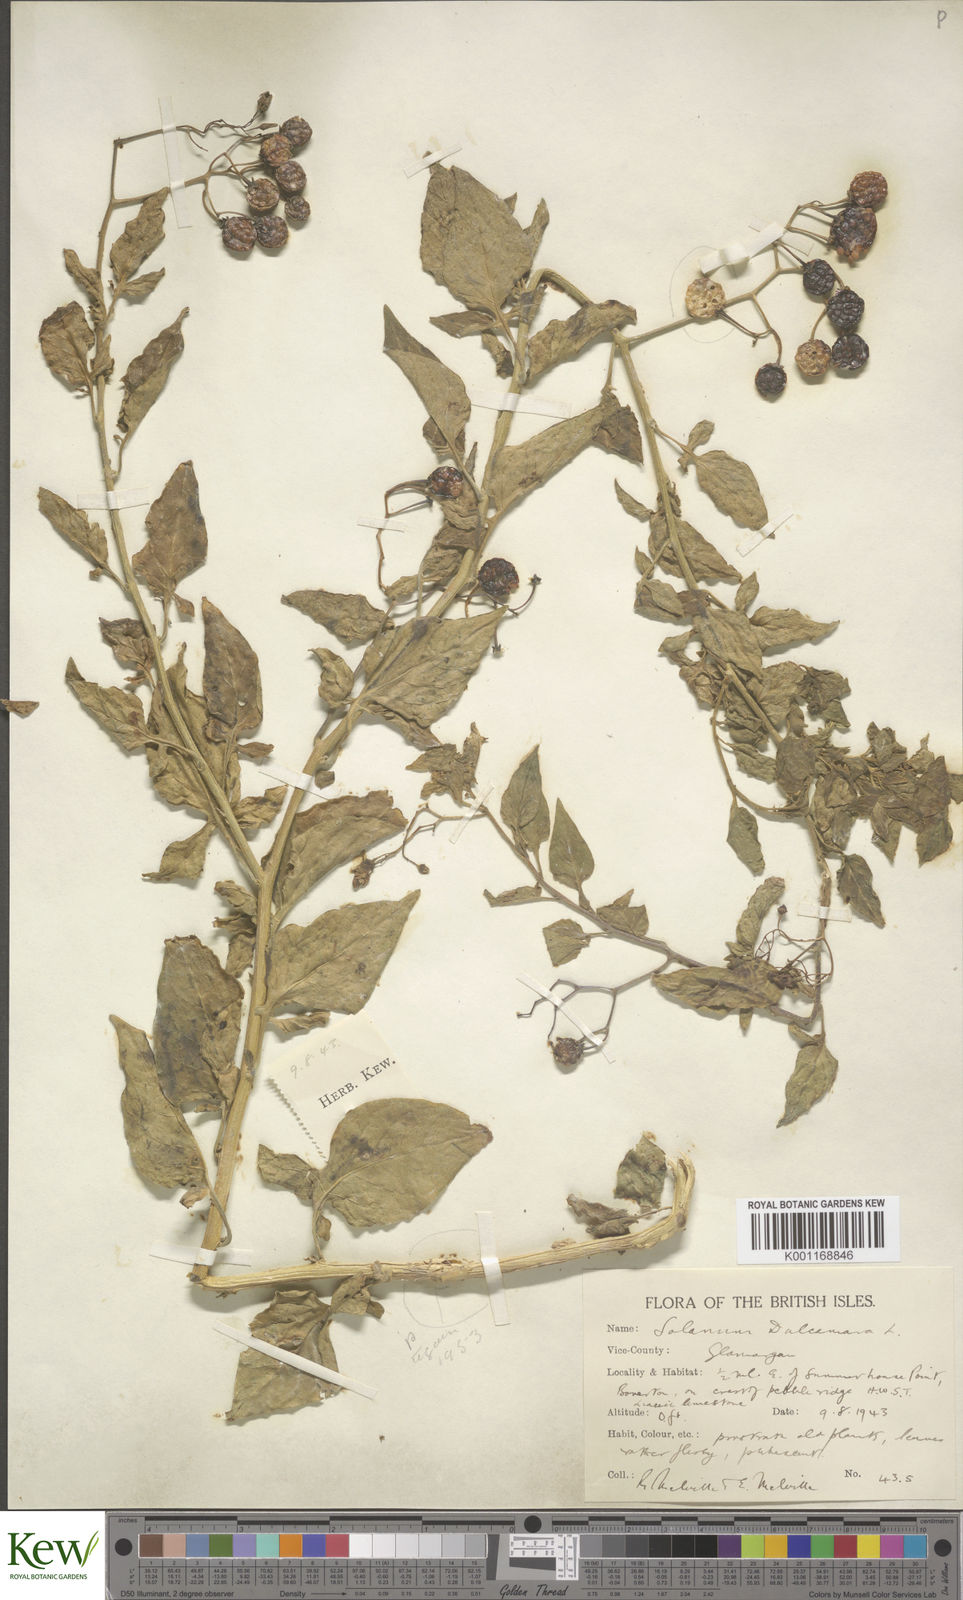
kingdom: Plantae
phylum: Tracheophyta
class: Magnoliopsida
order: Solanales
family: Solanaceae
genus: Solanum
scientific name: Solanum dulcamara
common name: Climbing nightshade
